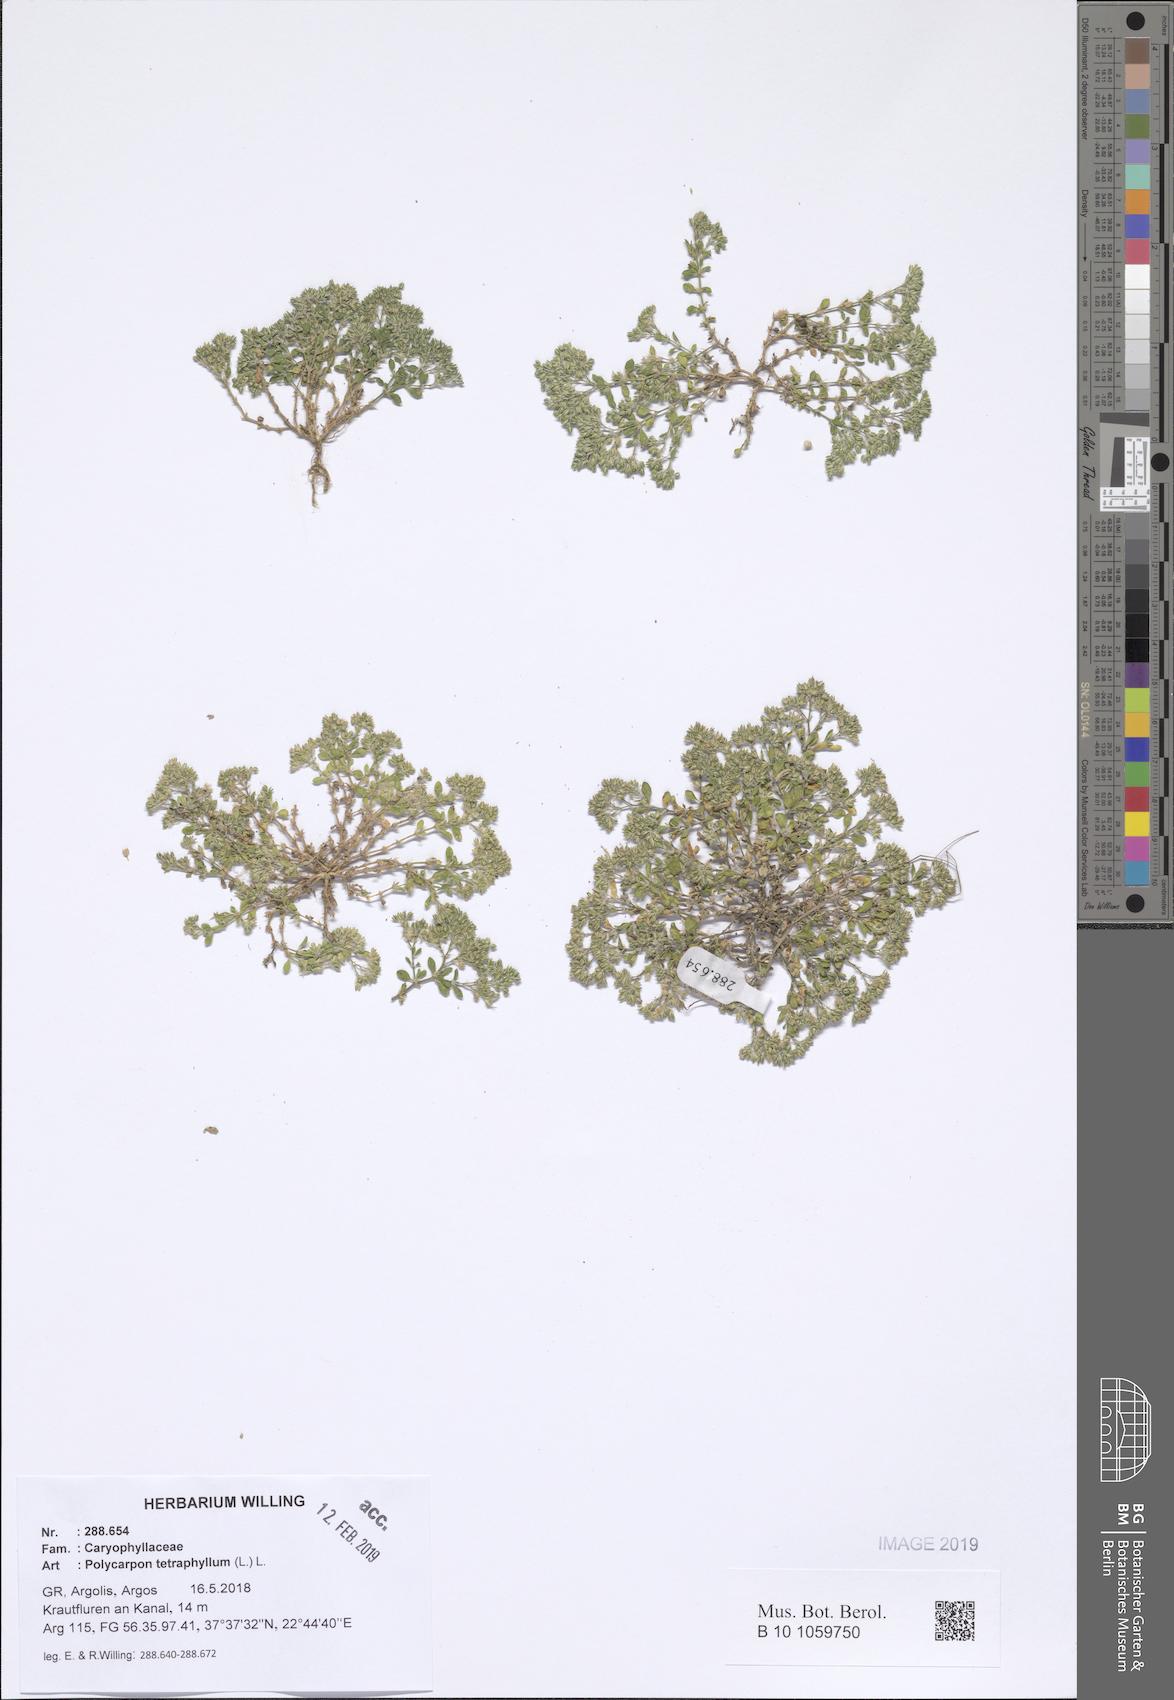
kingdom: Plantae
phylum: Tracheophyta
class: Magnoliopsida
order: Caryophyllales
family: Caryophyllaceae
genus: Polycarpon
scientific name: Polycarpon tetraphyllum
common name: Four-leaved all-seed
